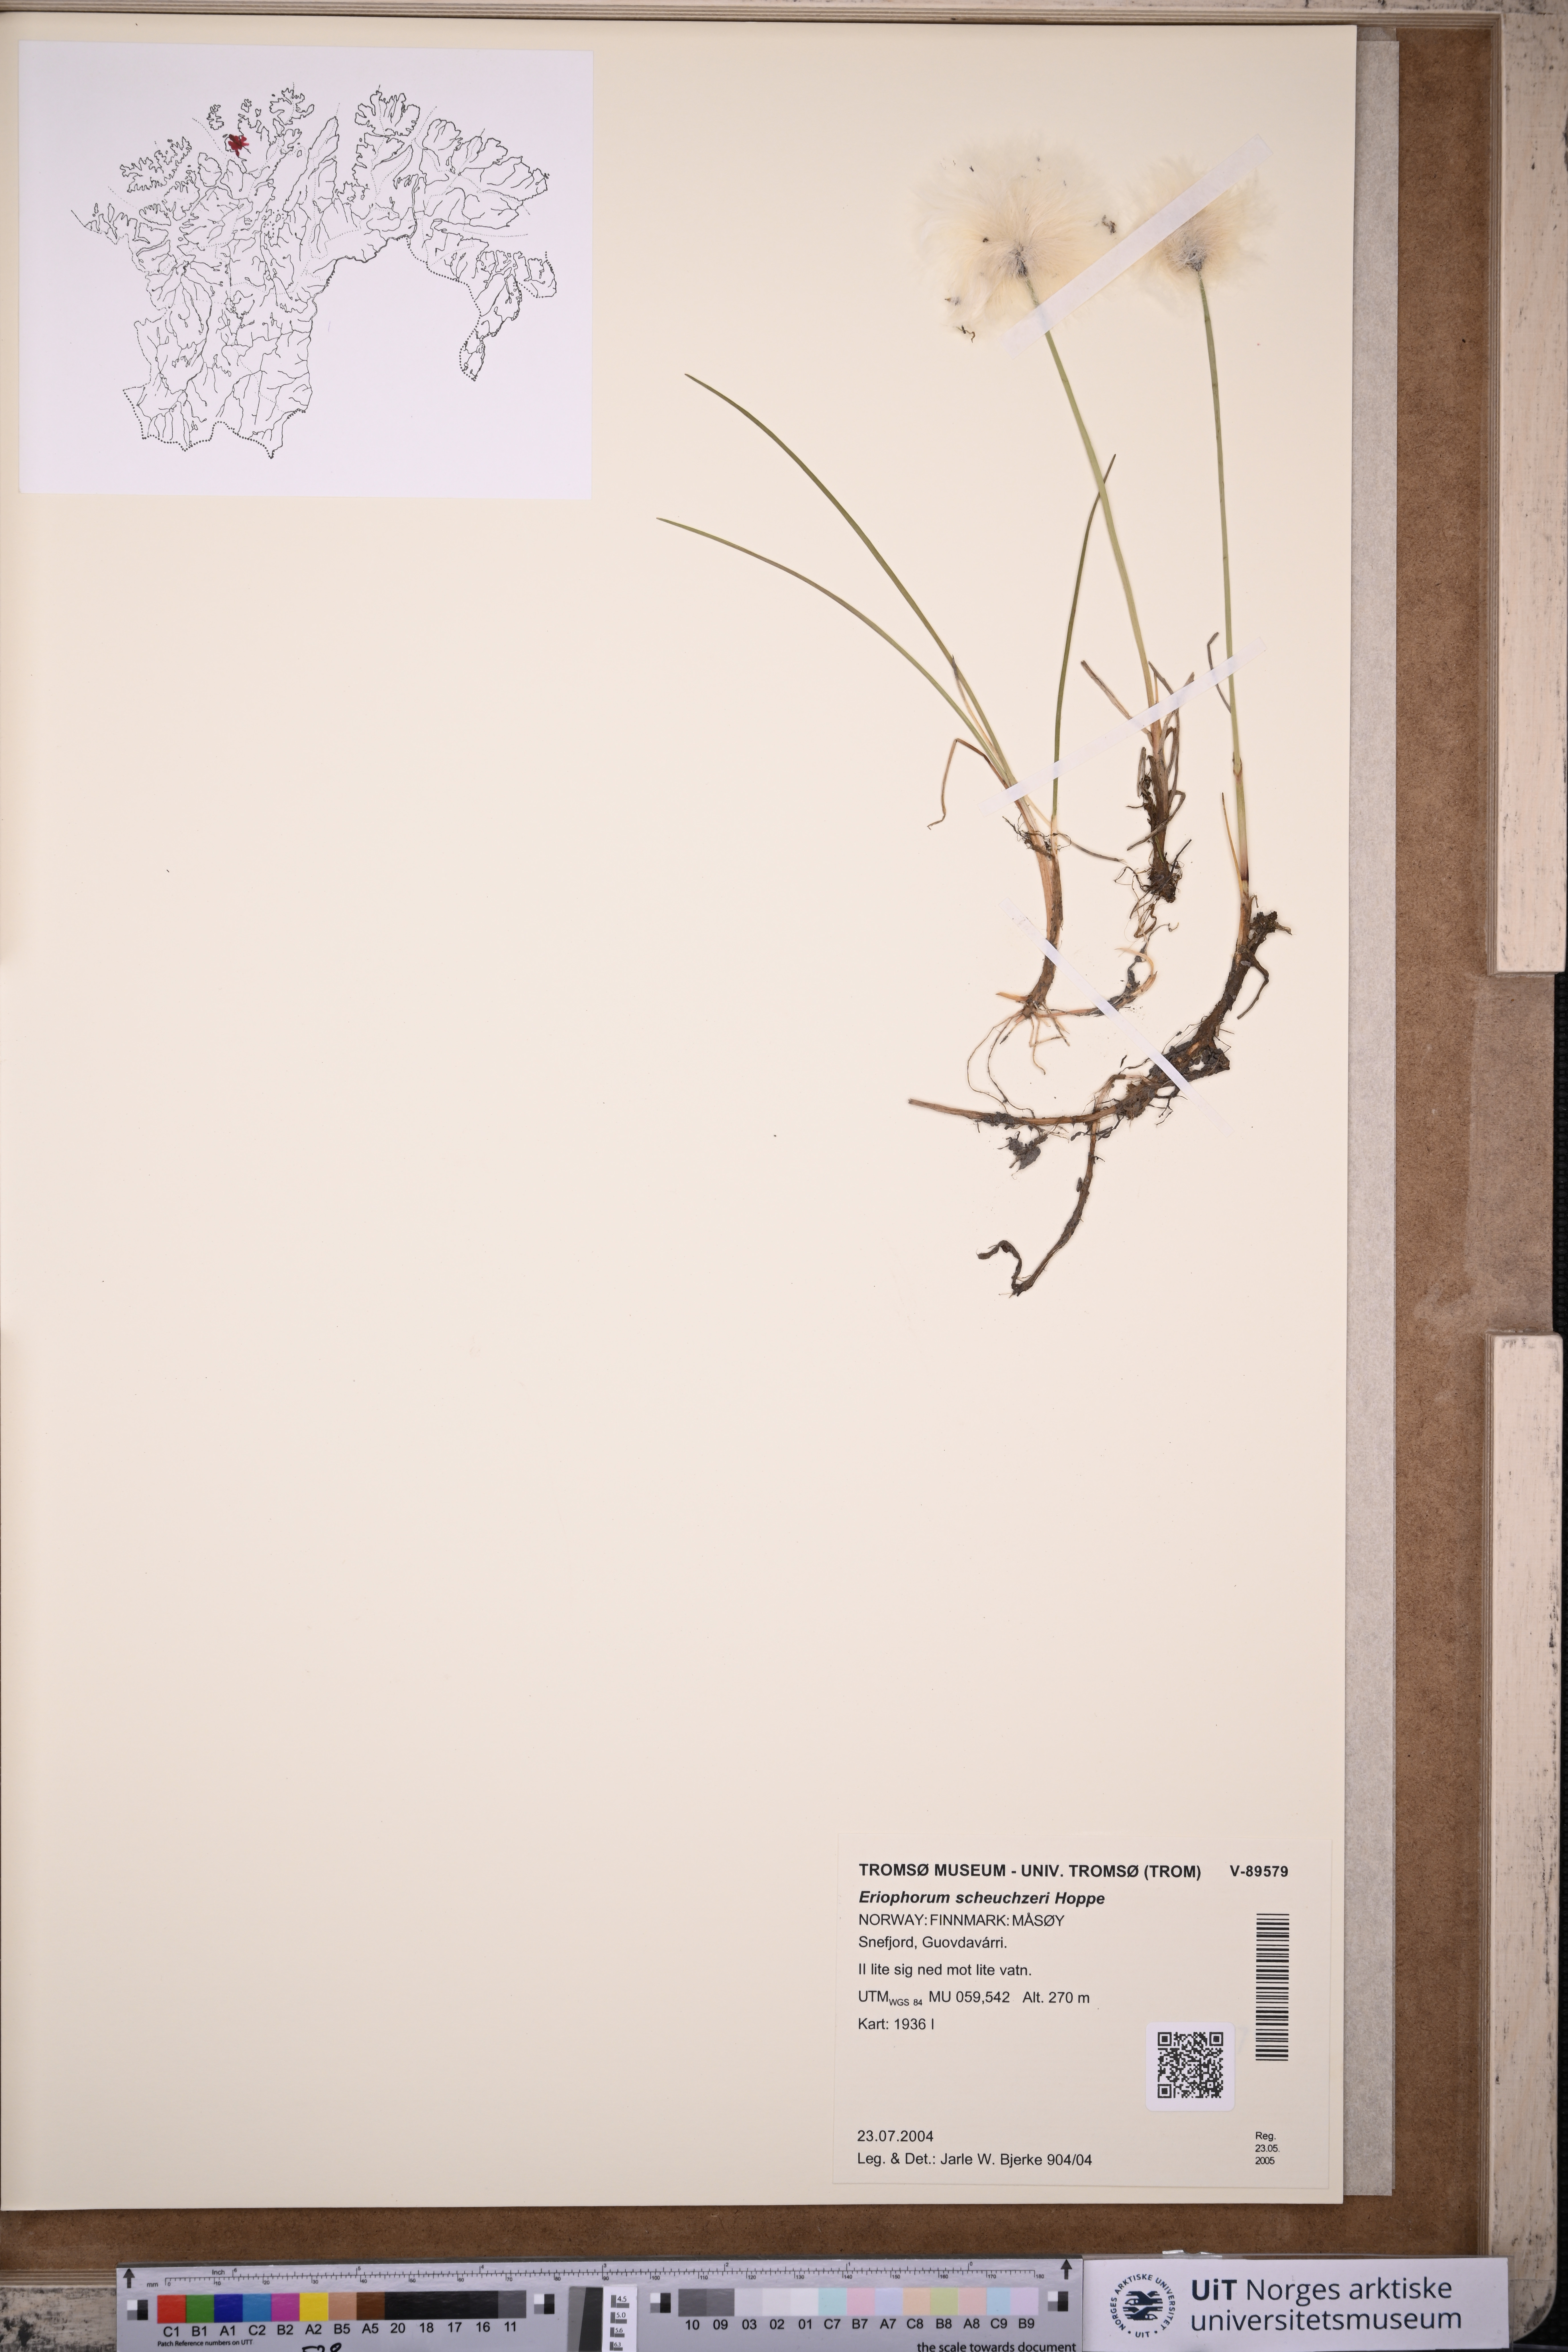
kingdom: Plantae
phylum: Tracheophyta
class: Liliopsida
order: Poales
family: Cyperaceae
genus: Eriophorum
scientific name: Eriophorum scheuchzeri
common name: Scheuchzer's cottongrass
